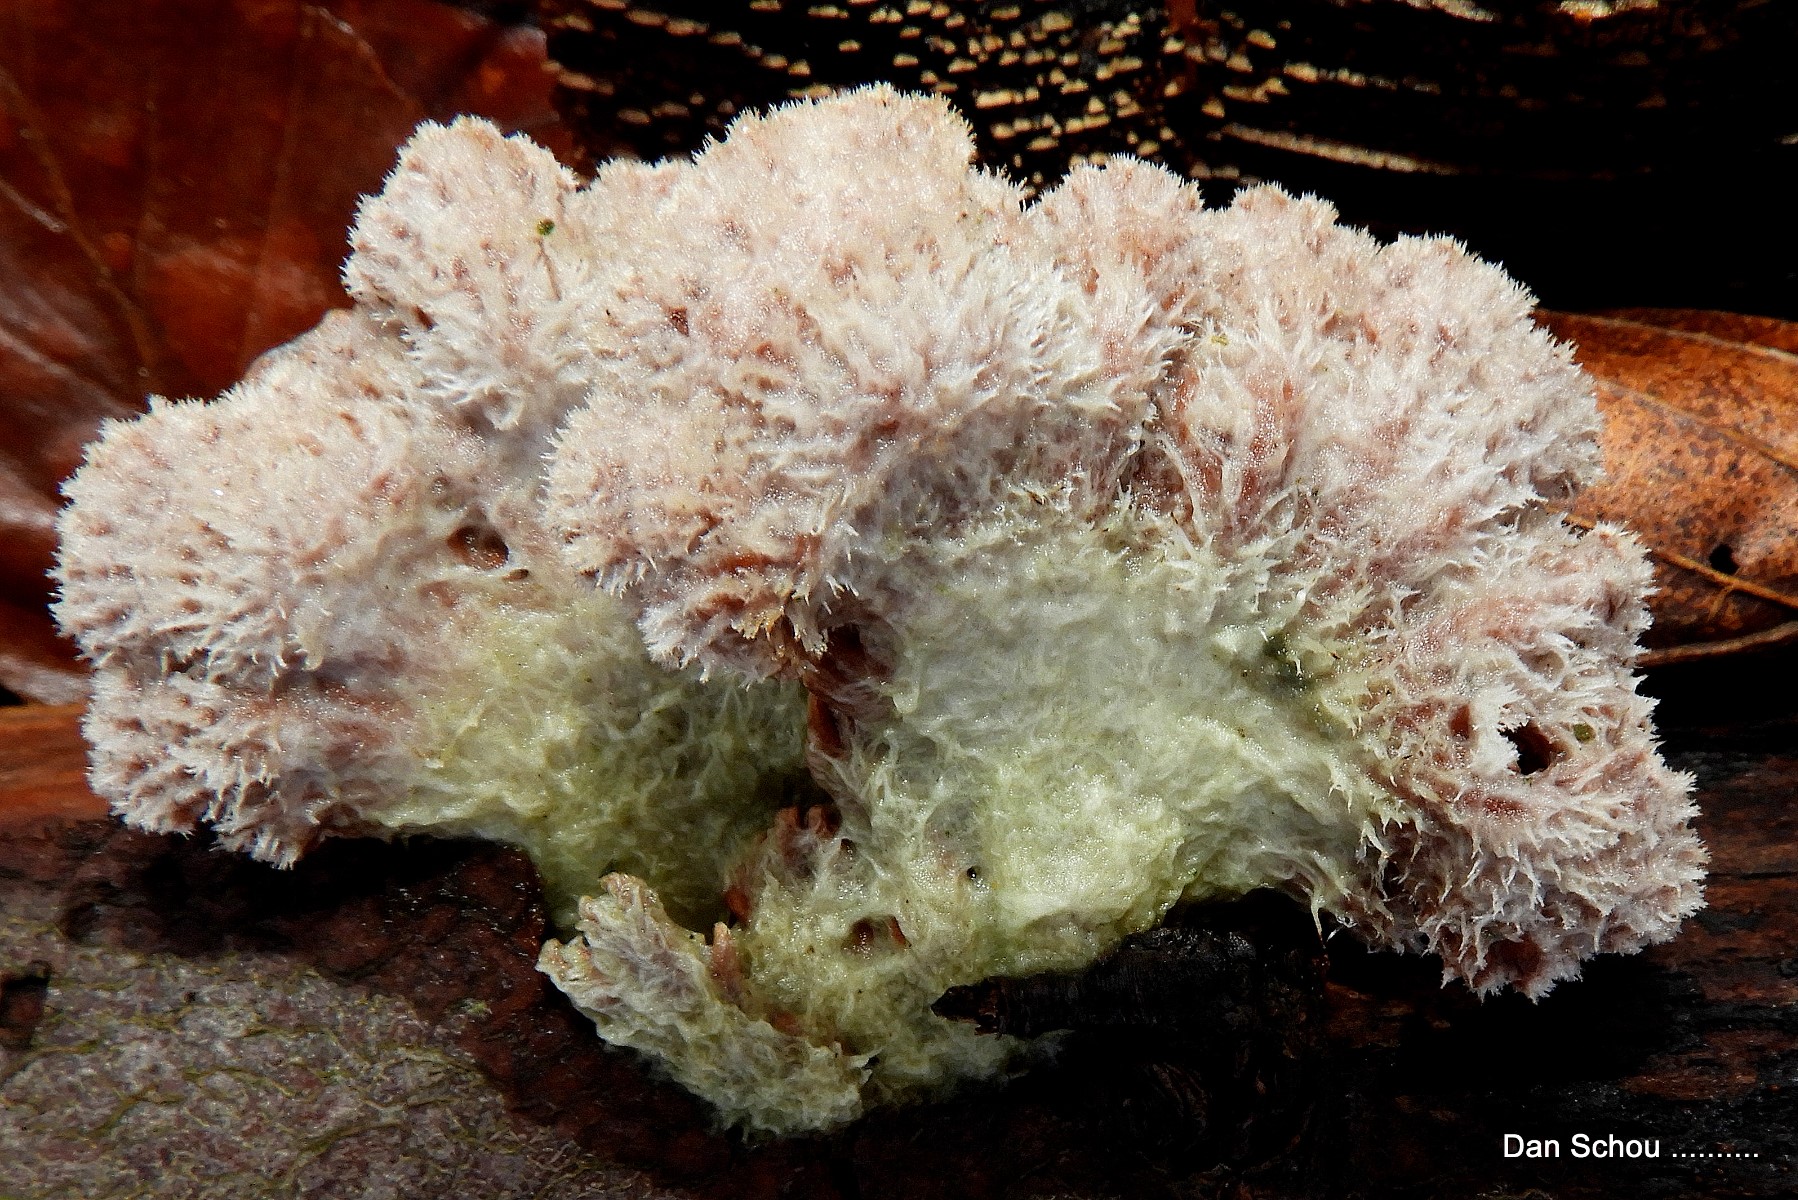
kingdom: Fungi
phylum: Basidiomycota
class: Agaricomycetes
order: Agaricales
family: Schizophyllaceae
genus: Schizophyllum
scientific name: Schizophyllum commune
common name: kløvblad
